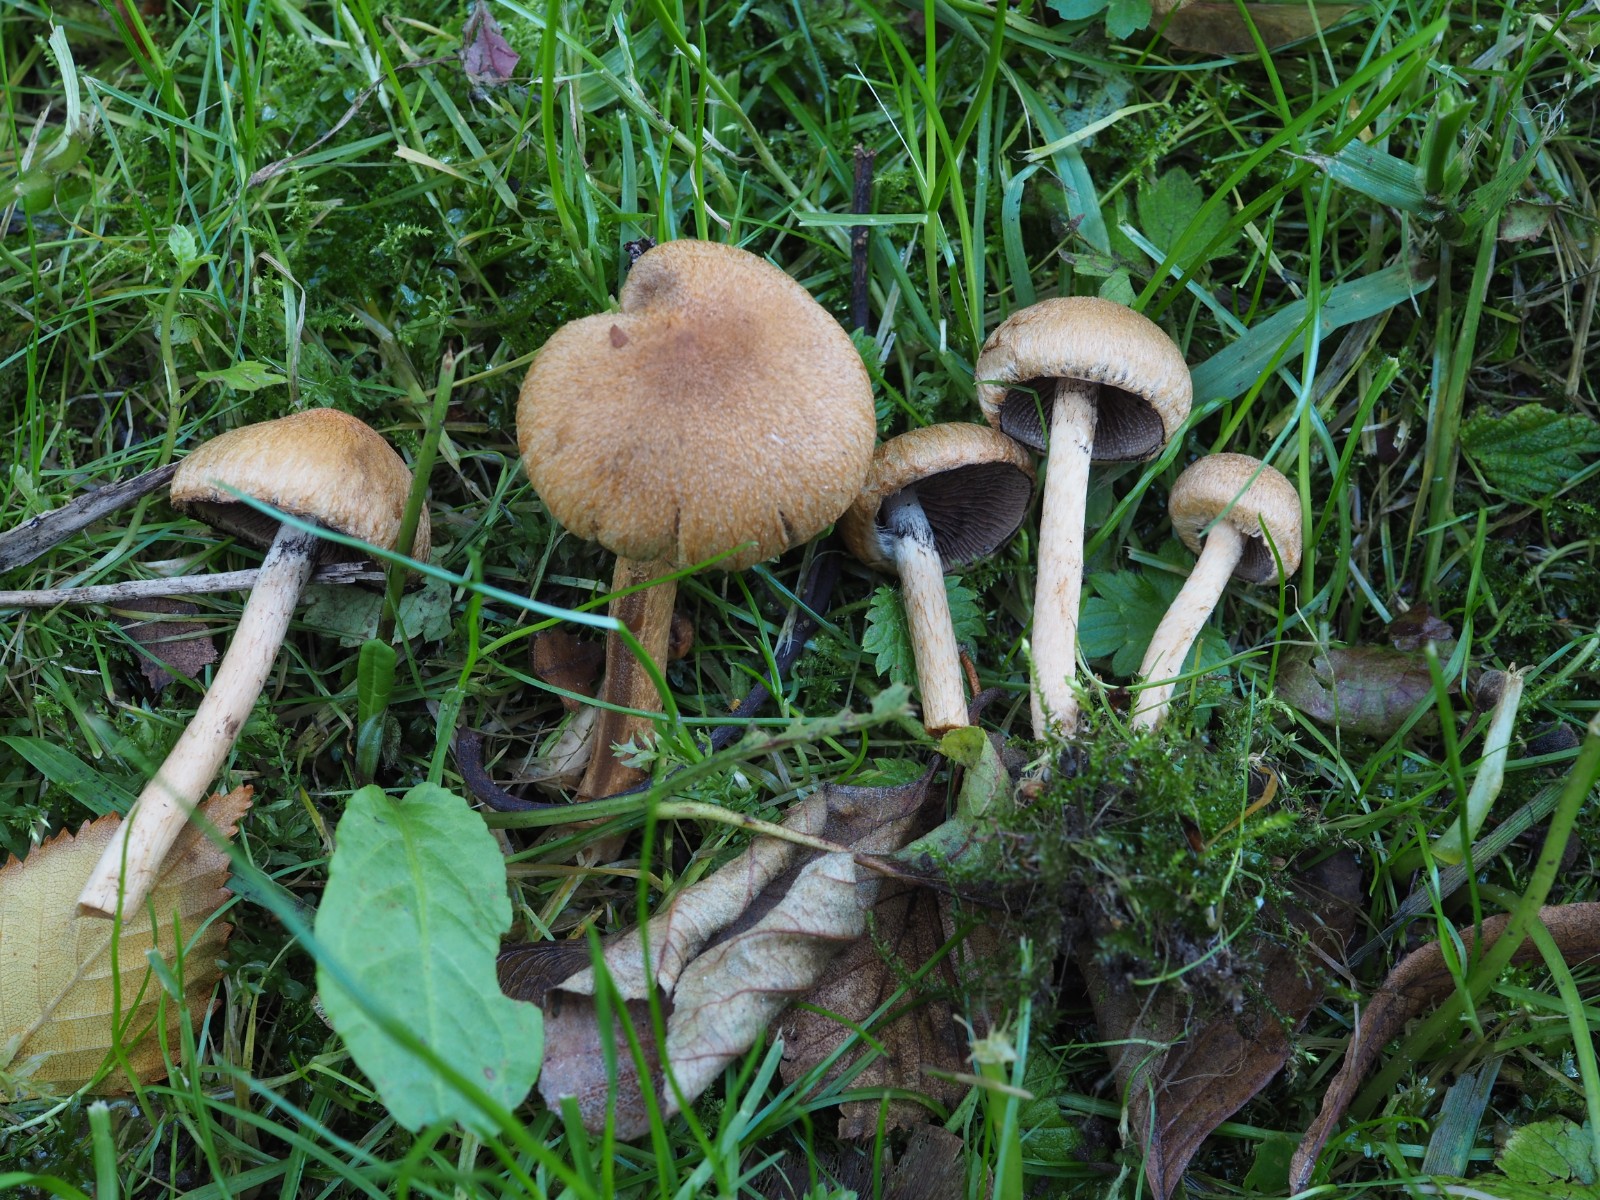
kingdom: Fungi
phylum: Basidiomycota
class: Agaricomycetes
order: Agaricales
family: Psathyrellaceae
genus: Lacrymaria
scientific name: Lacrymaria lacrymabunda
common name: grædende mørkhat
